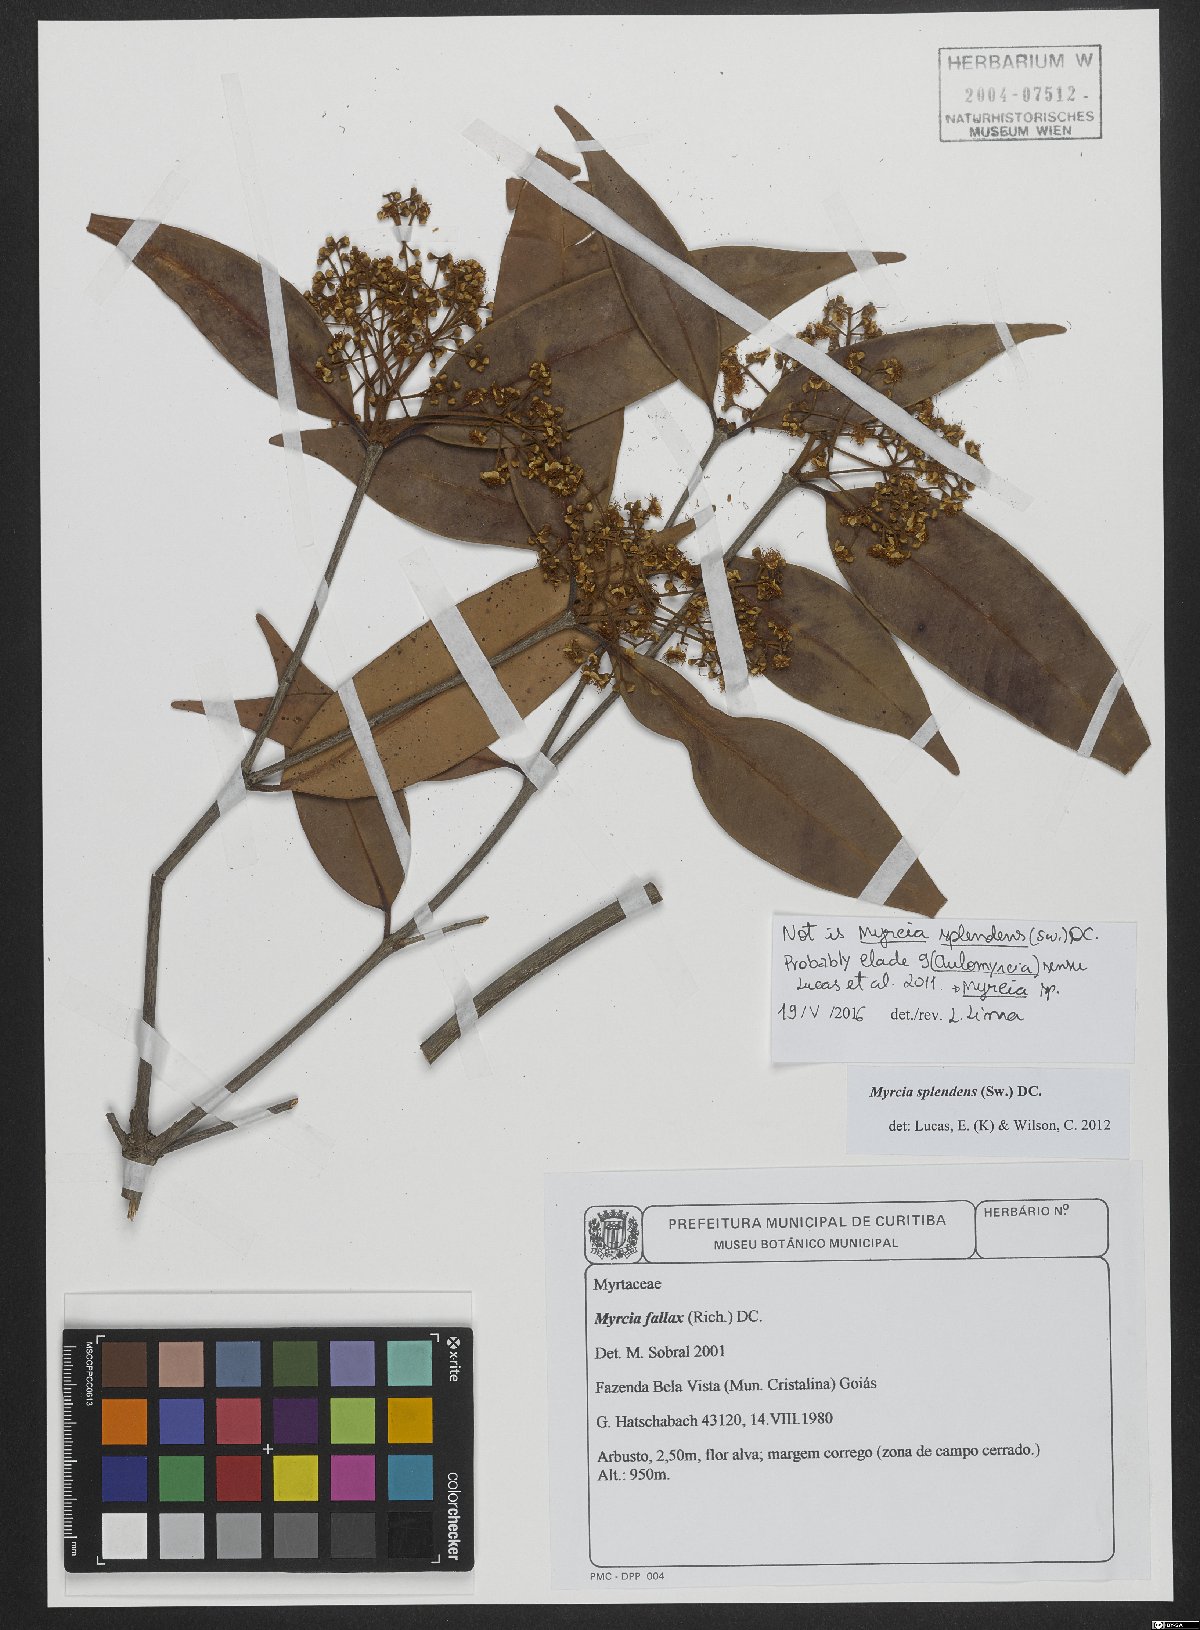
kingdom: Plantae
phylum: Tracheophyta
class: Magnoliopsida
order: Myrtales
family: Myrtaceae
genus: Myrcia
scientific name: Myrcia
